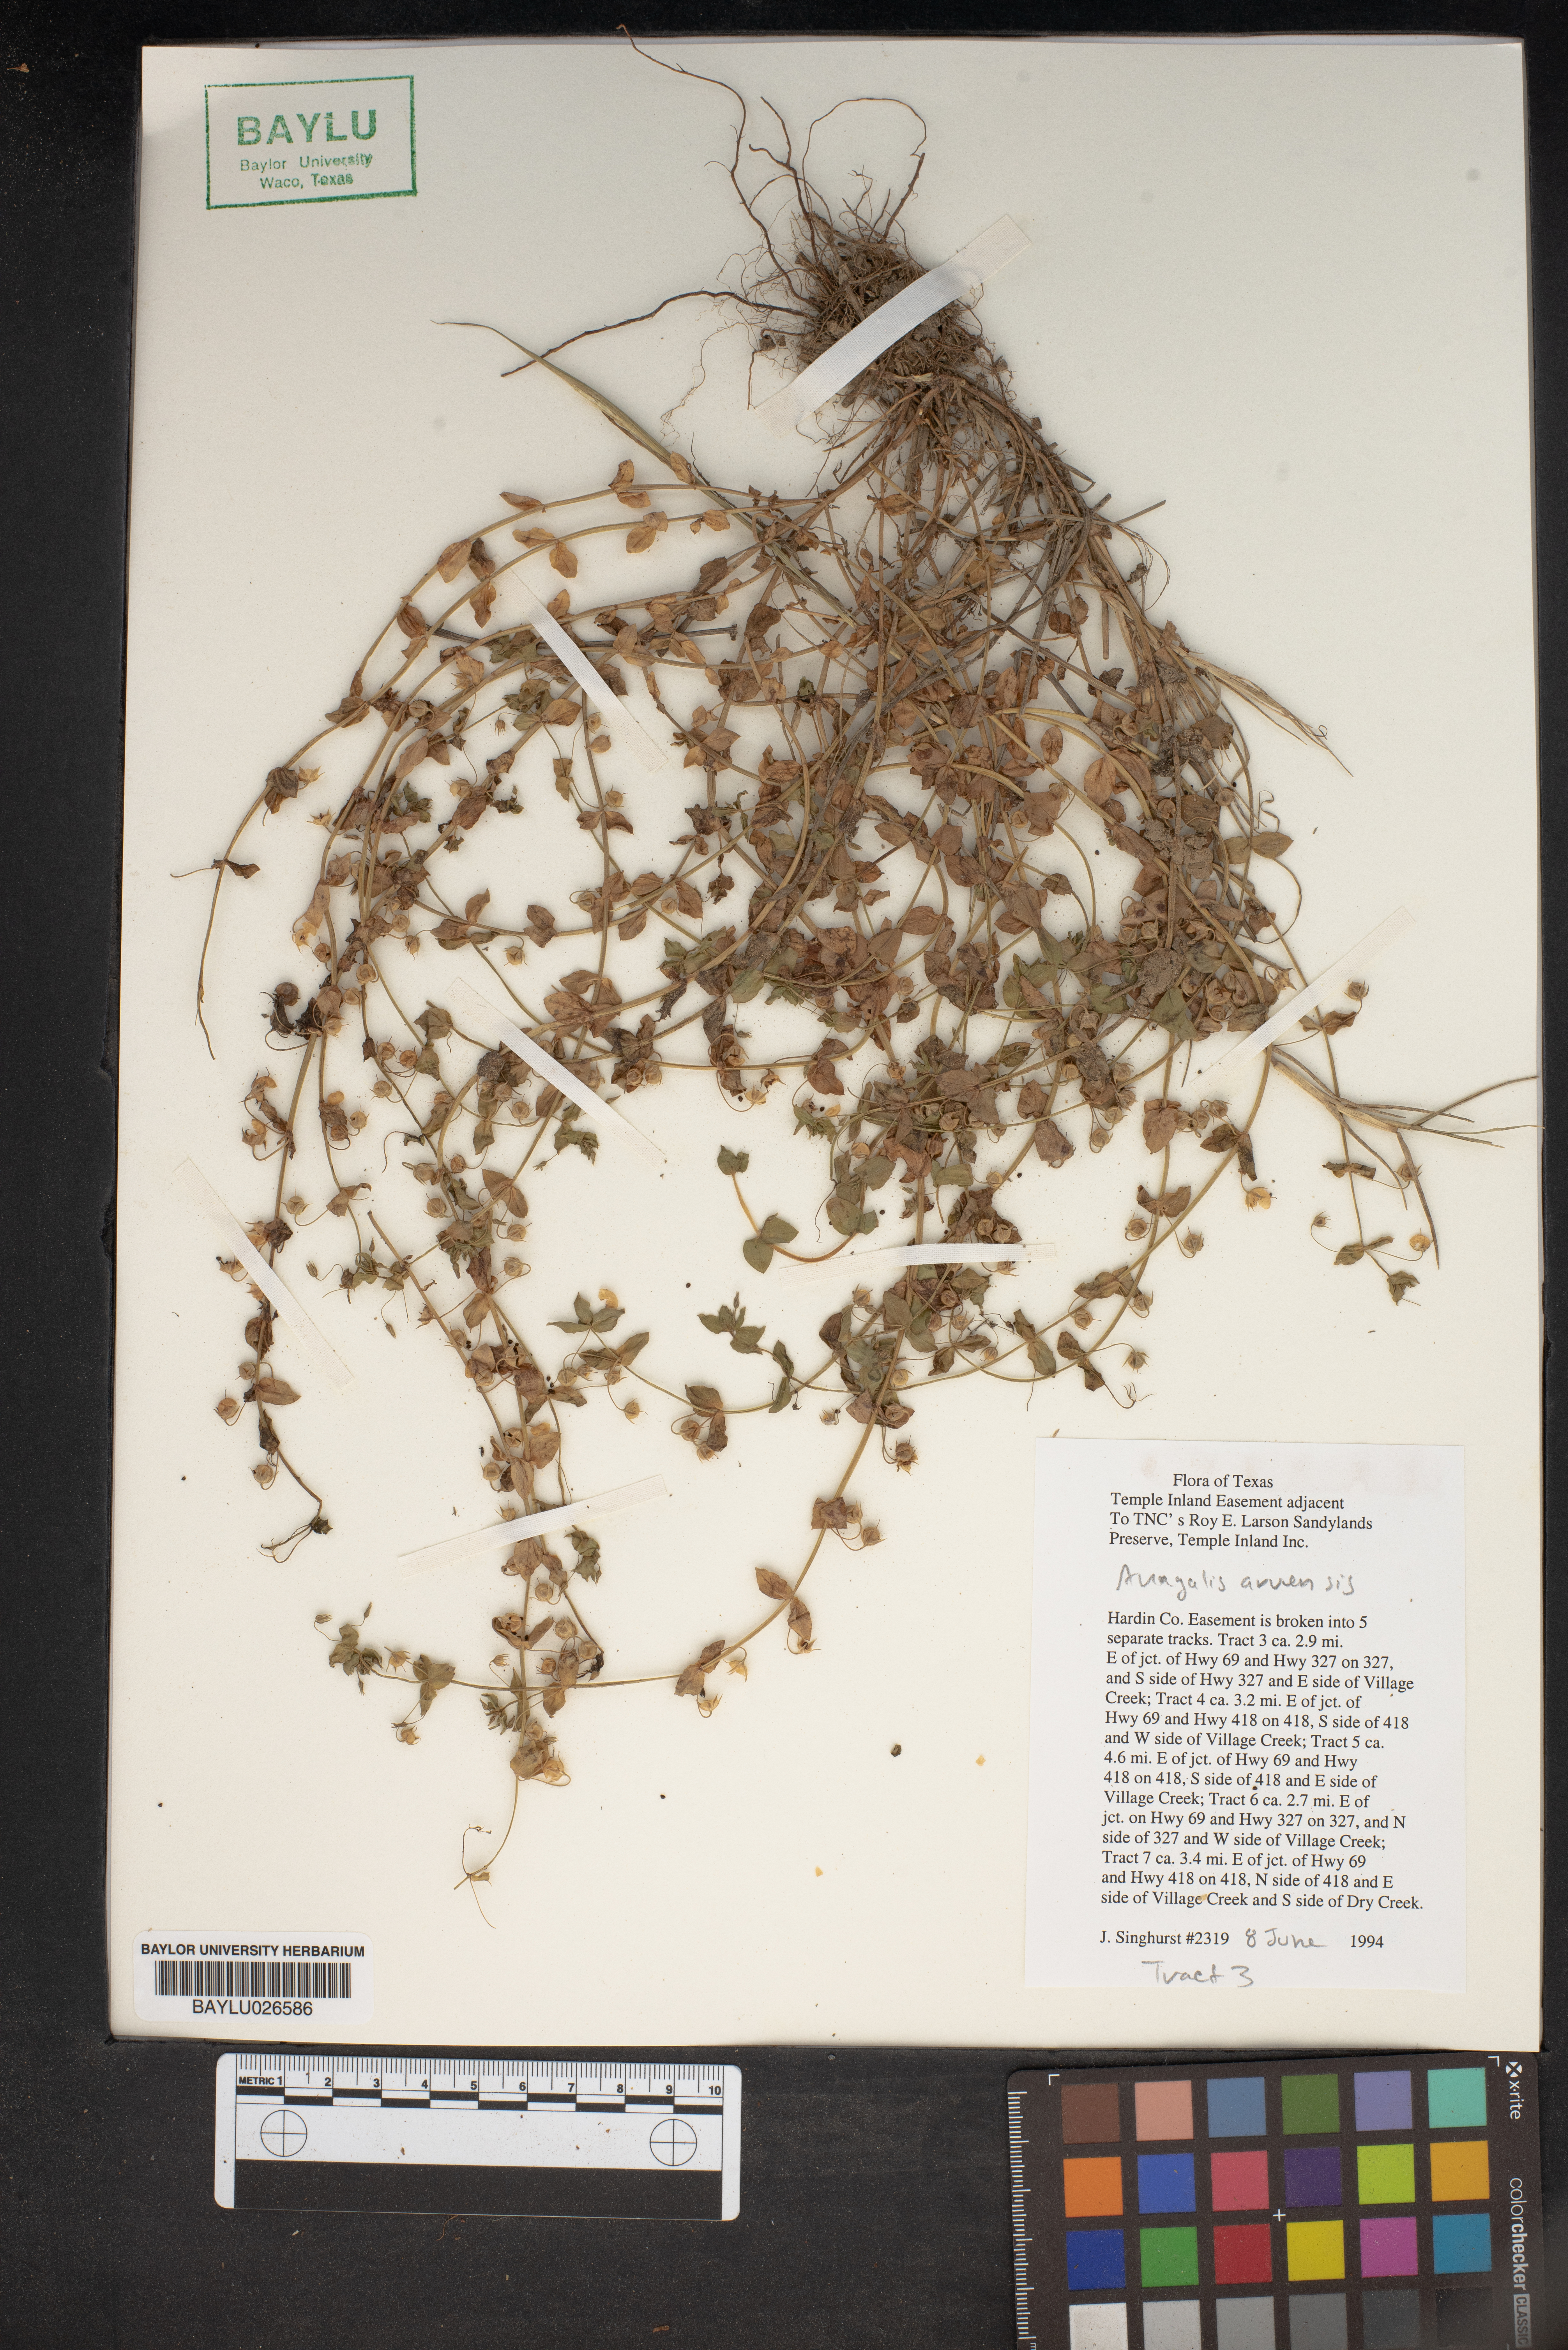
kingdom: Plantae
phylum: Tracheophyta
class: Magnoliopsida
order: Ericales
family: Primulaceae
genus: Lysimachia
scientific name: Lysimachia arvensis
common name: Scarlet pimpernel
